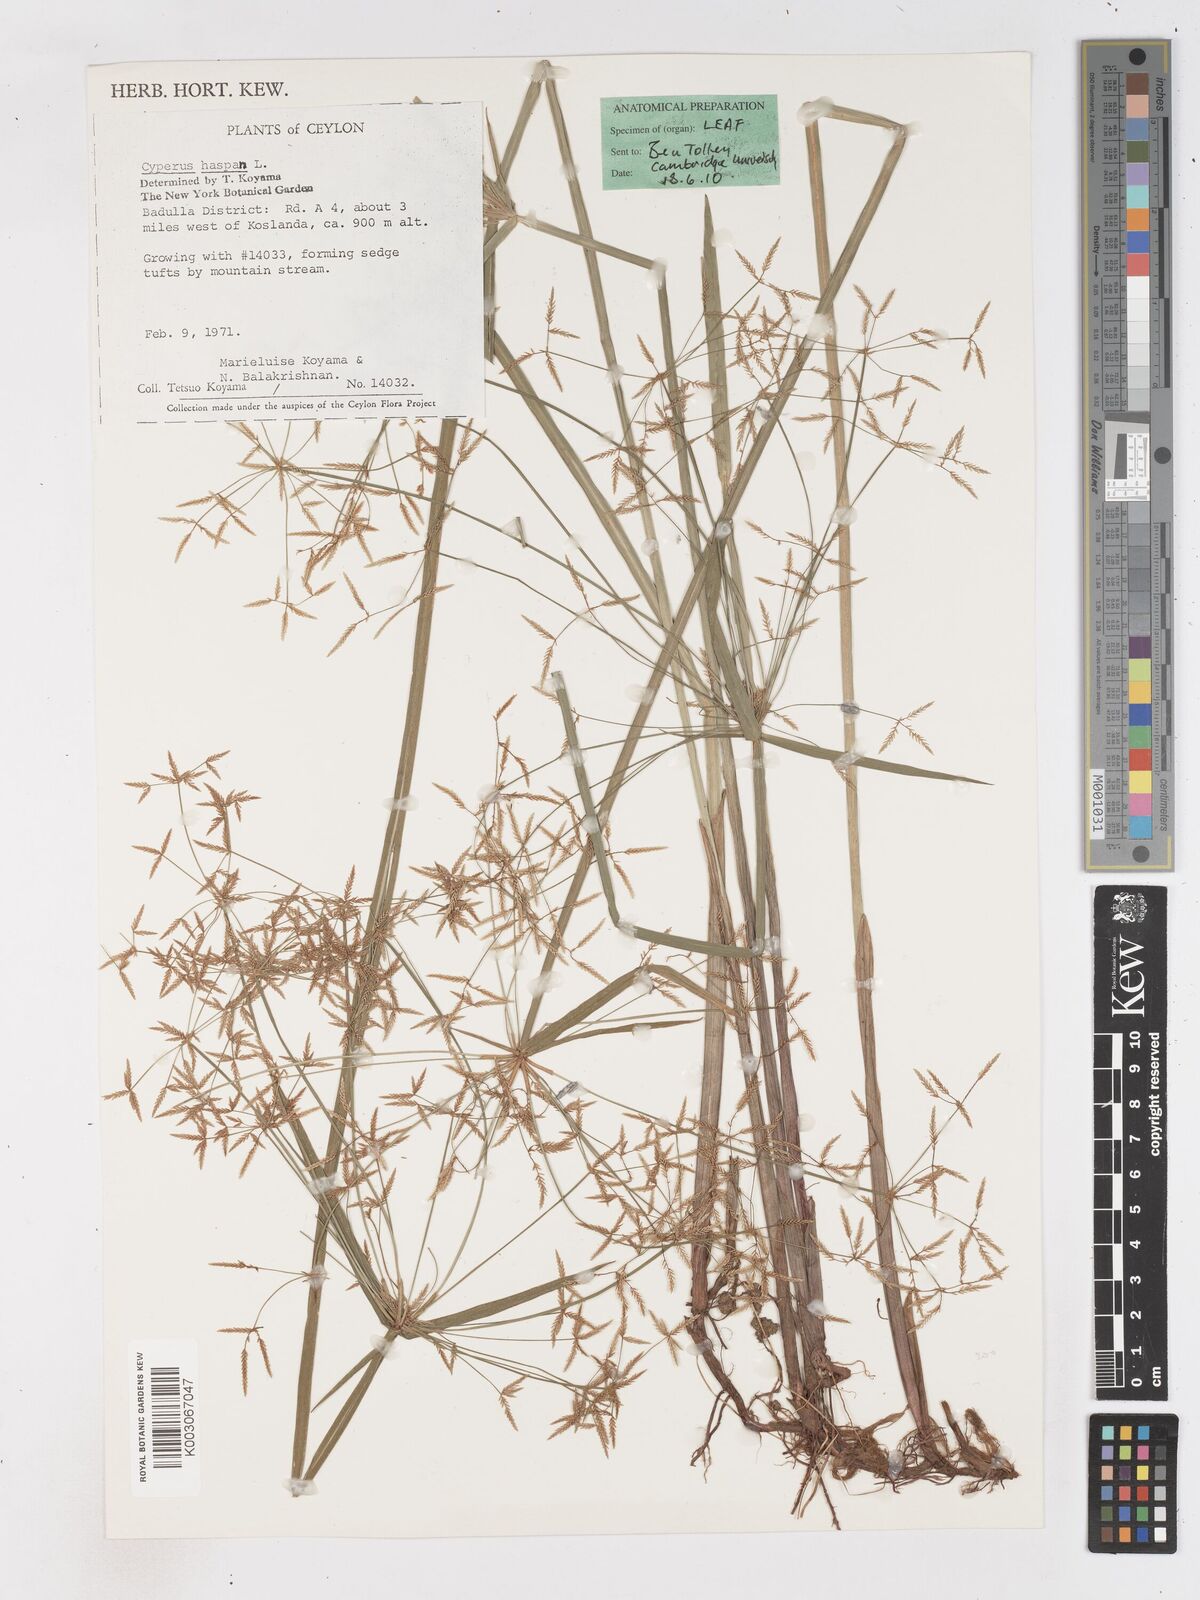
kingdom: Plantae
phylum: Tracheophyta
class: Liliopsida
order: Poales
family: Cyperaceae
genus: Cyperus
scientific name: Cyperus haspan
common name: Haspan flatsedge
